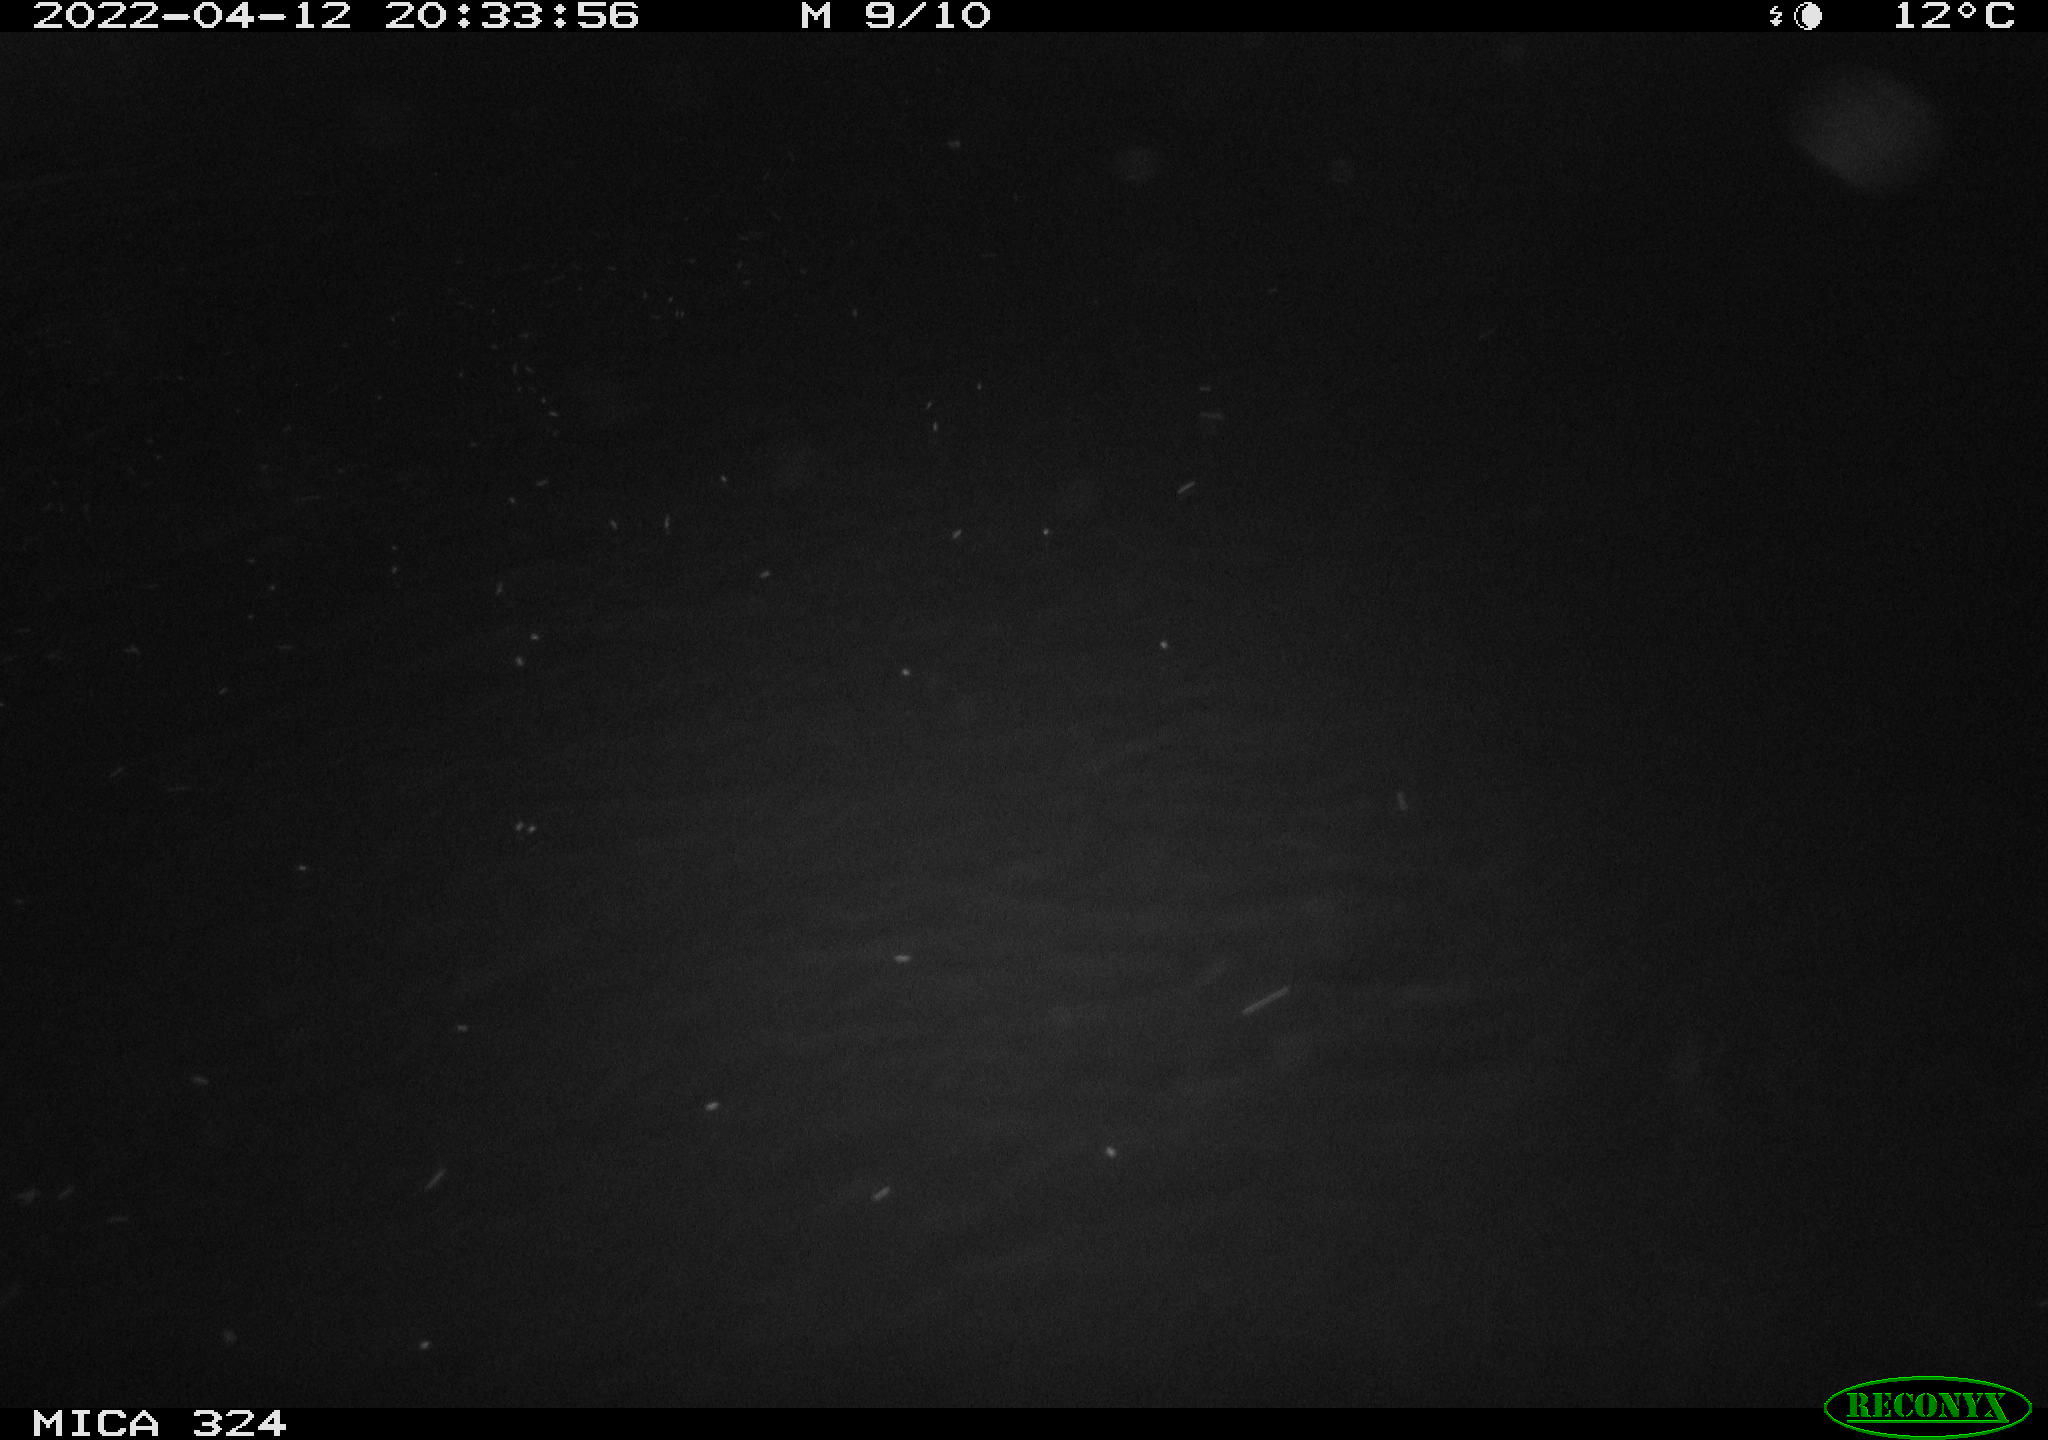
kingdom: Animalia
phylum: Chordata
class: Mammalia
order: Rodentia
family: Cricetidae
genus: Ondatra
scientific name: Ondatra zibethicus
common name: Muskrat
